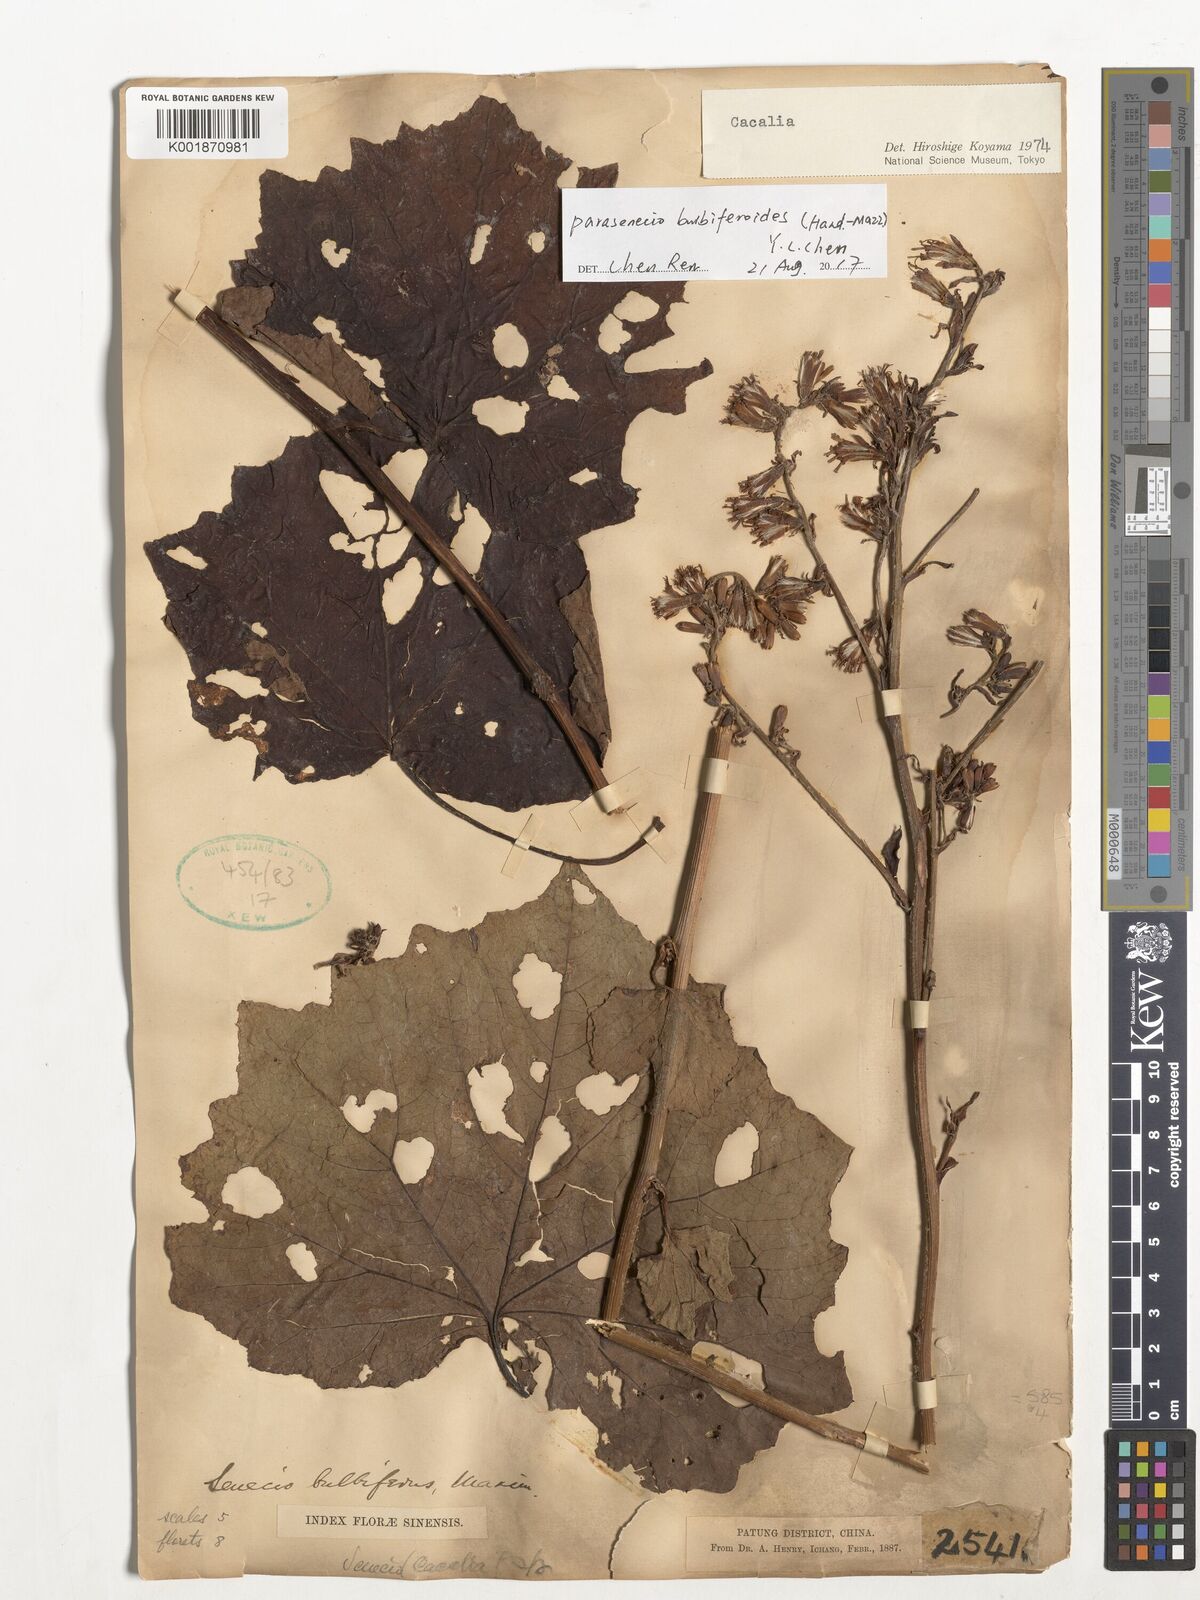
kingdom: Plantae
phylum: Tracheophyta
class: Magnoliopsida
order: Asterales
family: Asteraceae
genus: Parasenecio
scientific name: Parasenecio bulbiferoides
